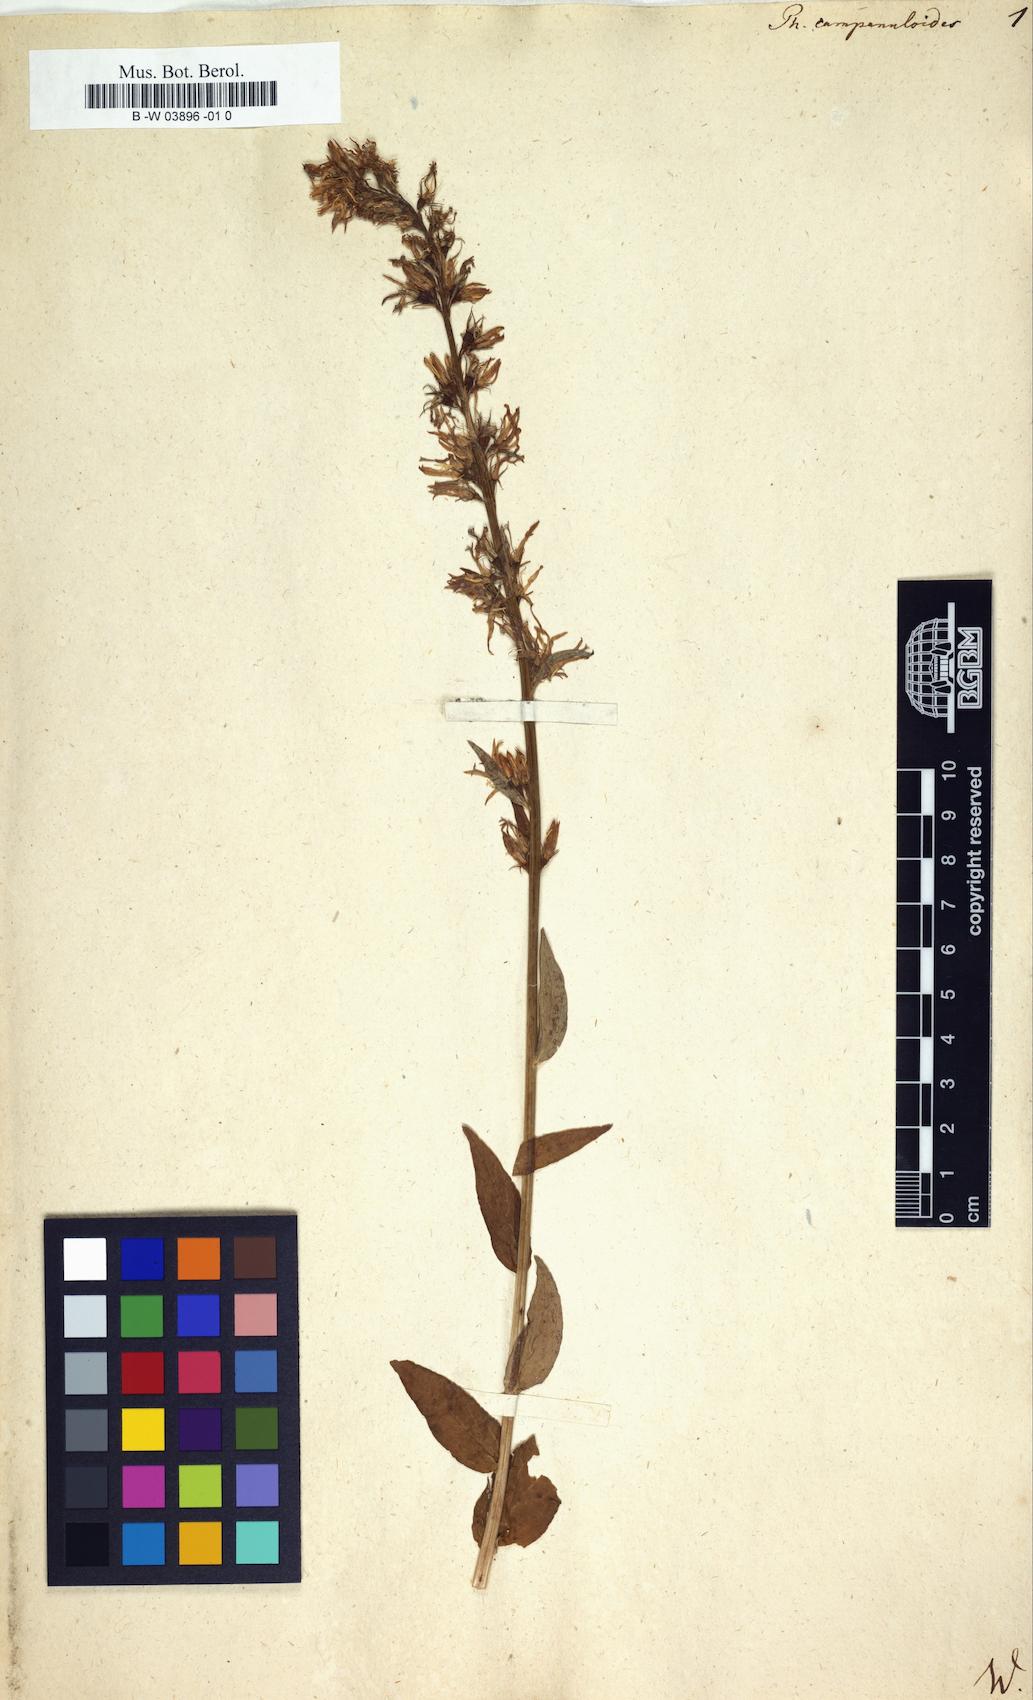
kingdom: Plantae
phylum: Tracheophyta
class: Magnoliopsida
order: Asterales
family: Campanulaceae
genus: Phyteuma
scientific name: Phyteuma campanuloides
